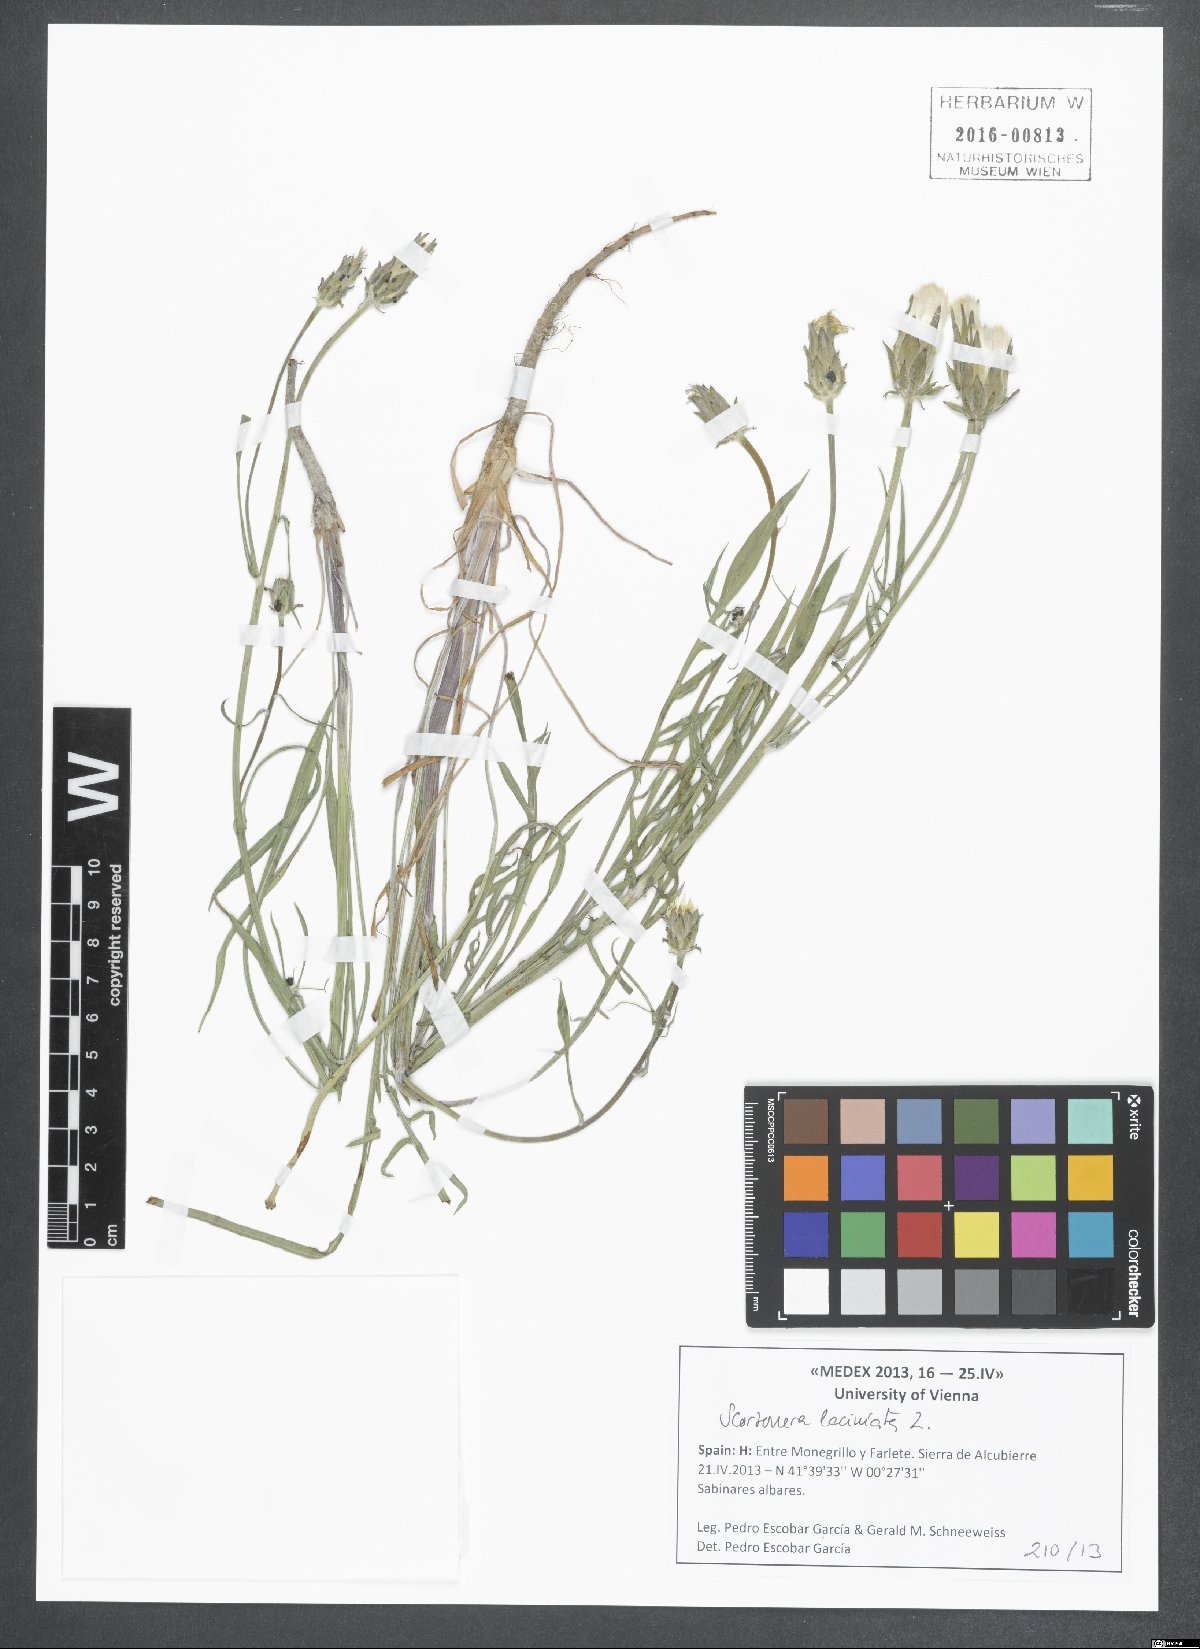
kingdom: Plantae
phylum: Tracheophyta
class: Magnoliopsida
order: Asterales
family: Asteraceae
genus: Scorzonera
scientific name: Scorzonera laciniata
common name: Cutleaf vipergrass
